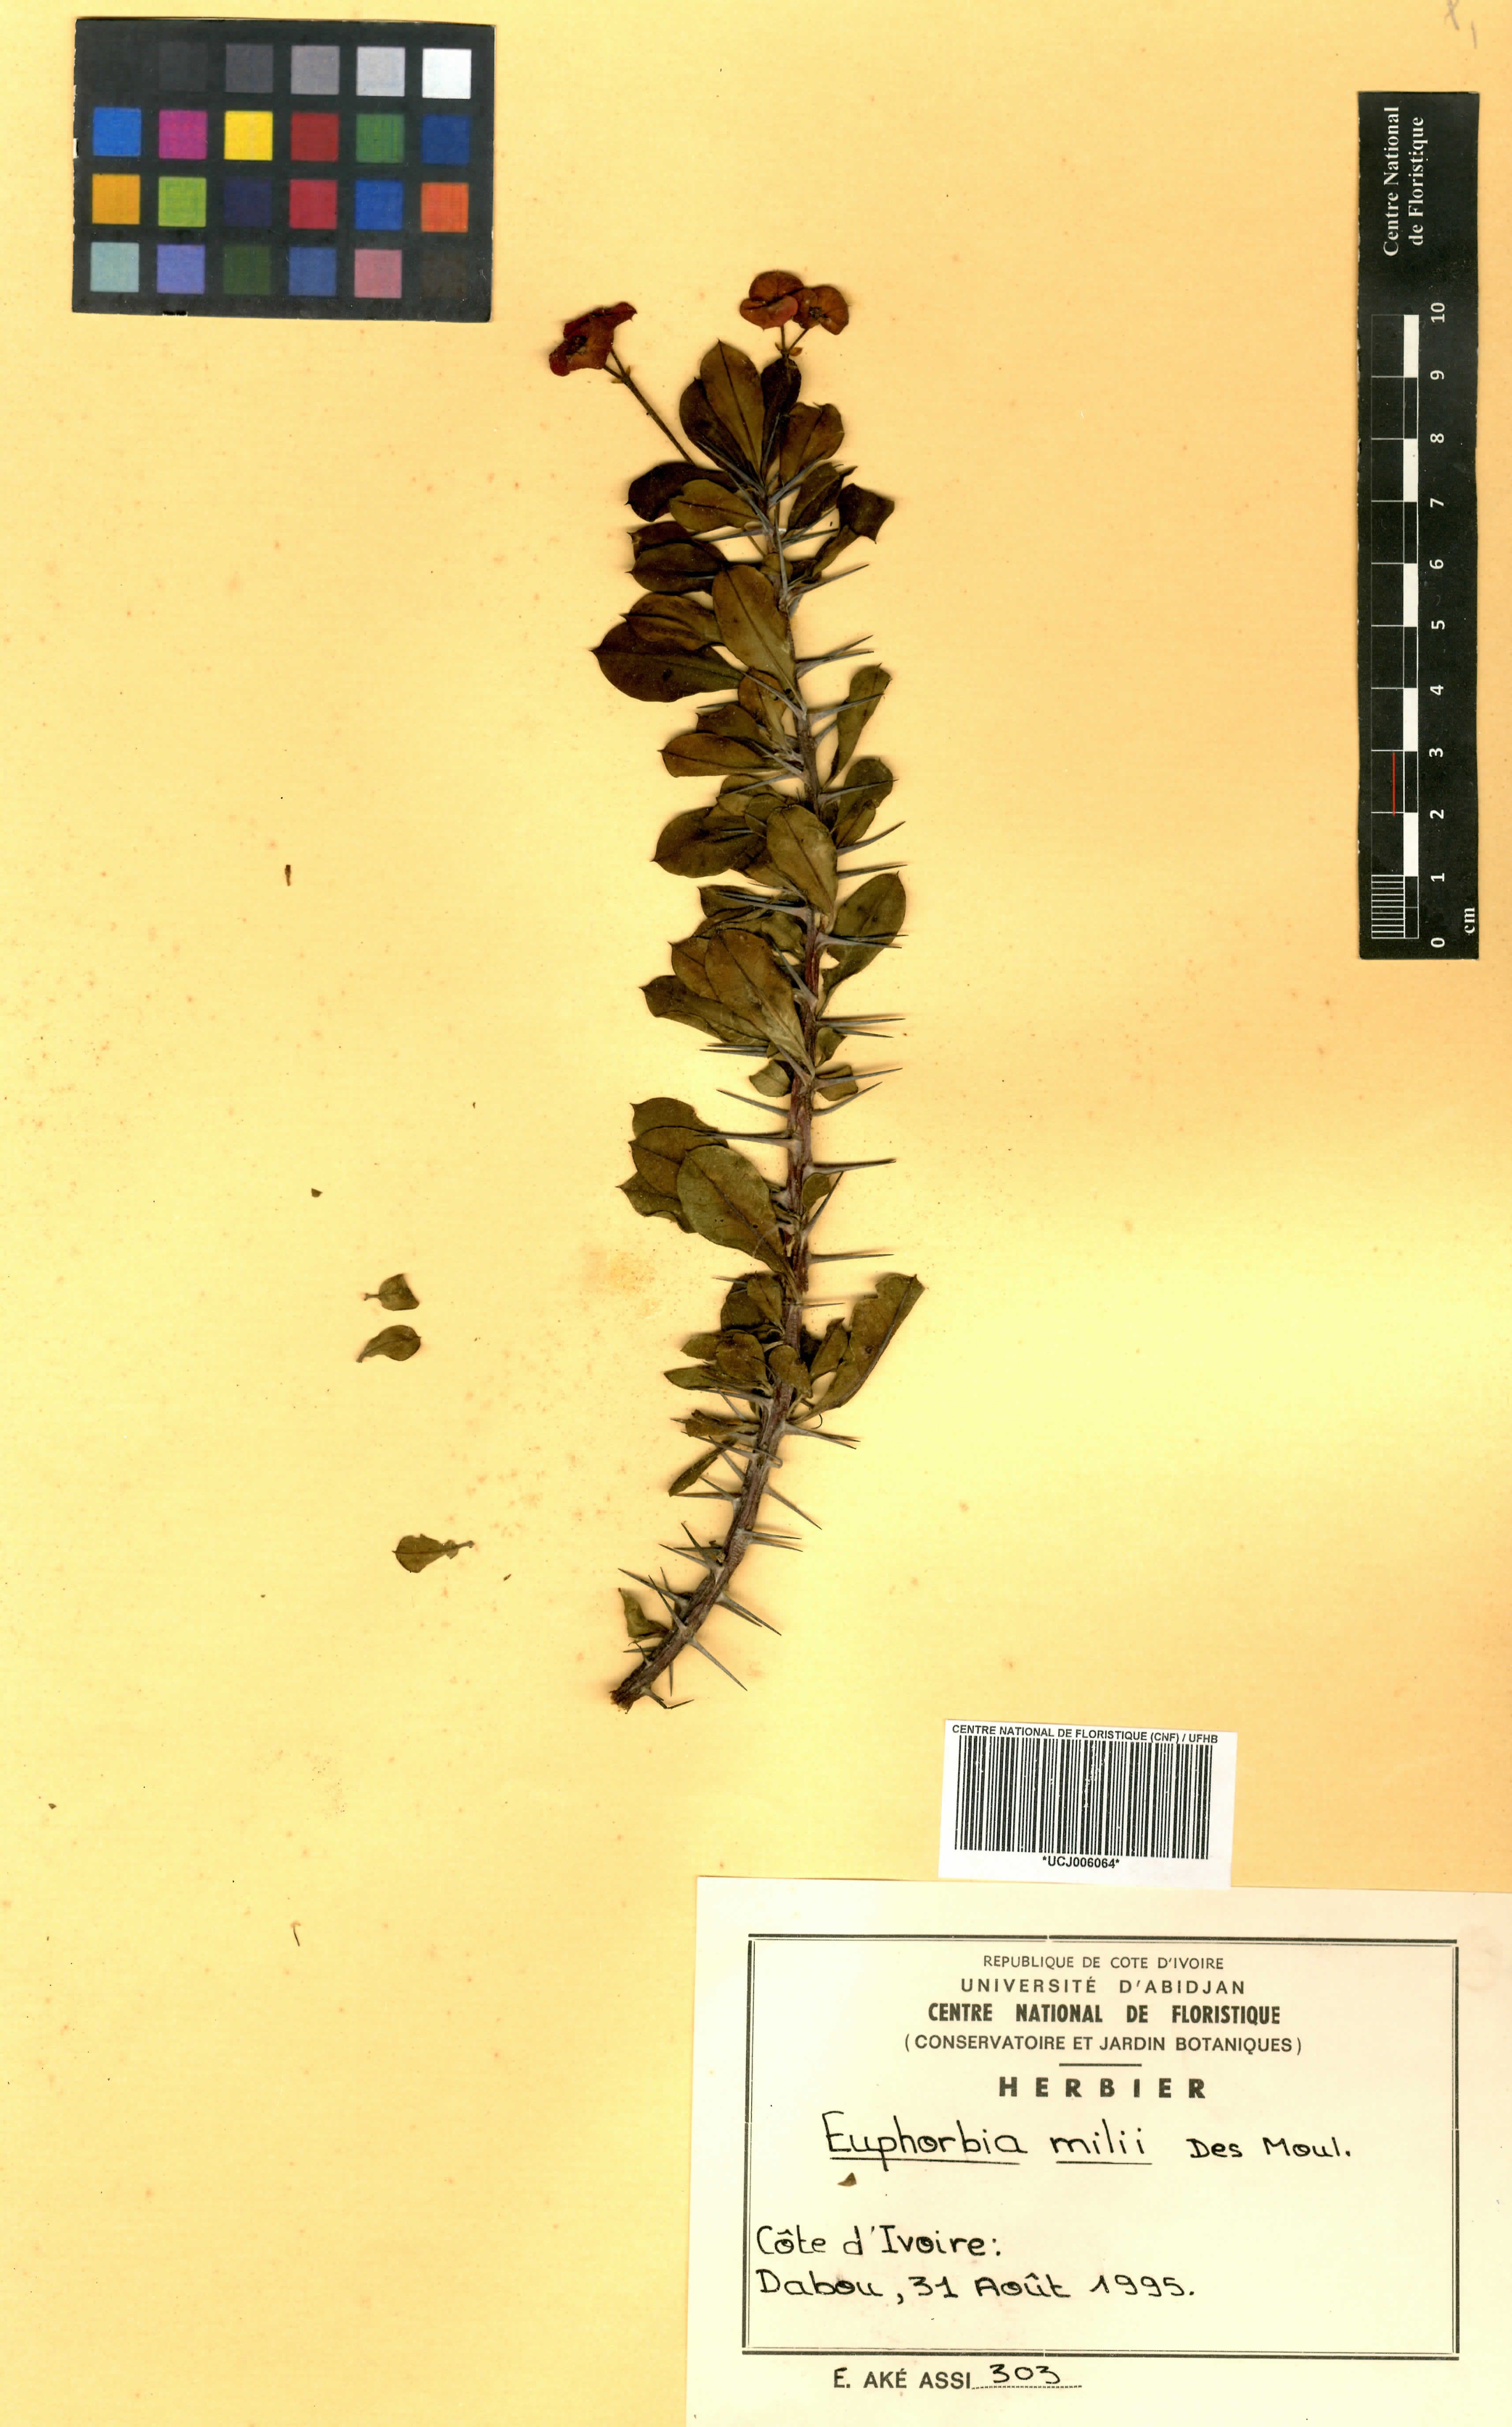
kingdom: Plantae
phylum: Tracheophyta
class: Magnoliopsida
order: Malpighiales
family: Euphorbiaceae
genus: Euphorbia
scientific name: Euphorbia milii
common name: Christplant
